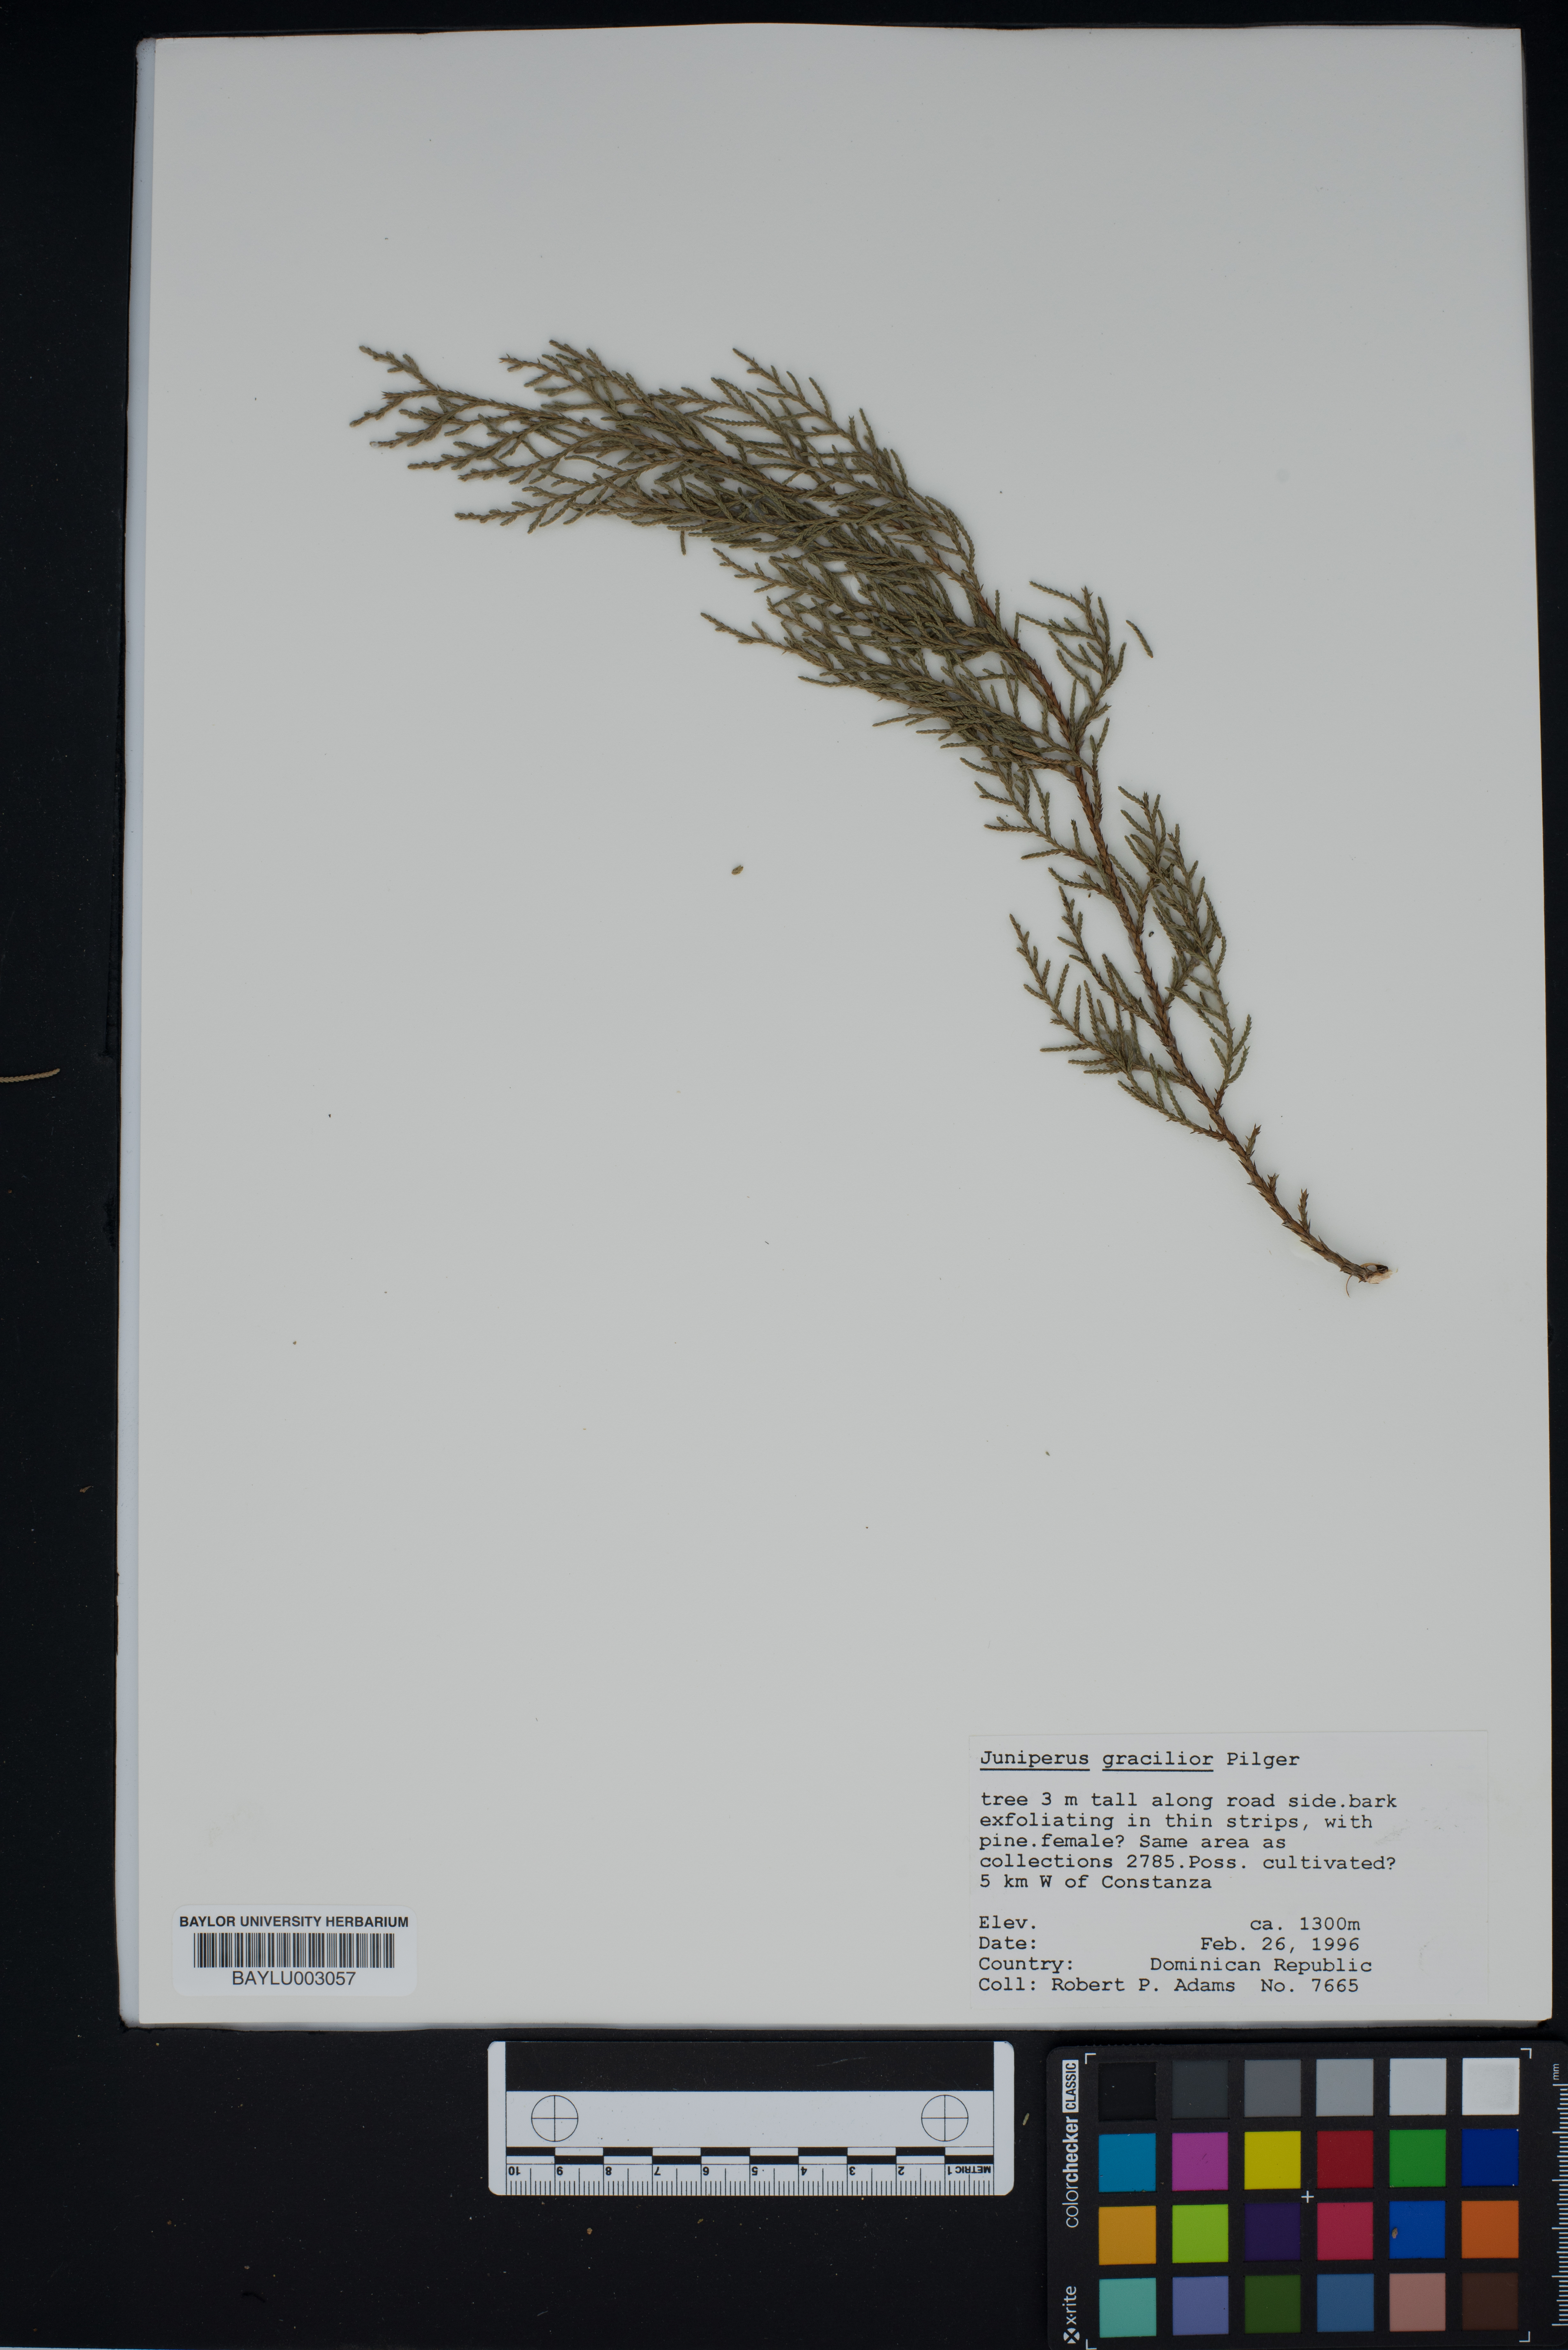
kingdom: Plantae
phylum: Tracheophyta
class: Pinopsida
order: Pinales
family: Cupressaceae
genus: Juniperus
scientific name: Juniperus gracilior
